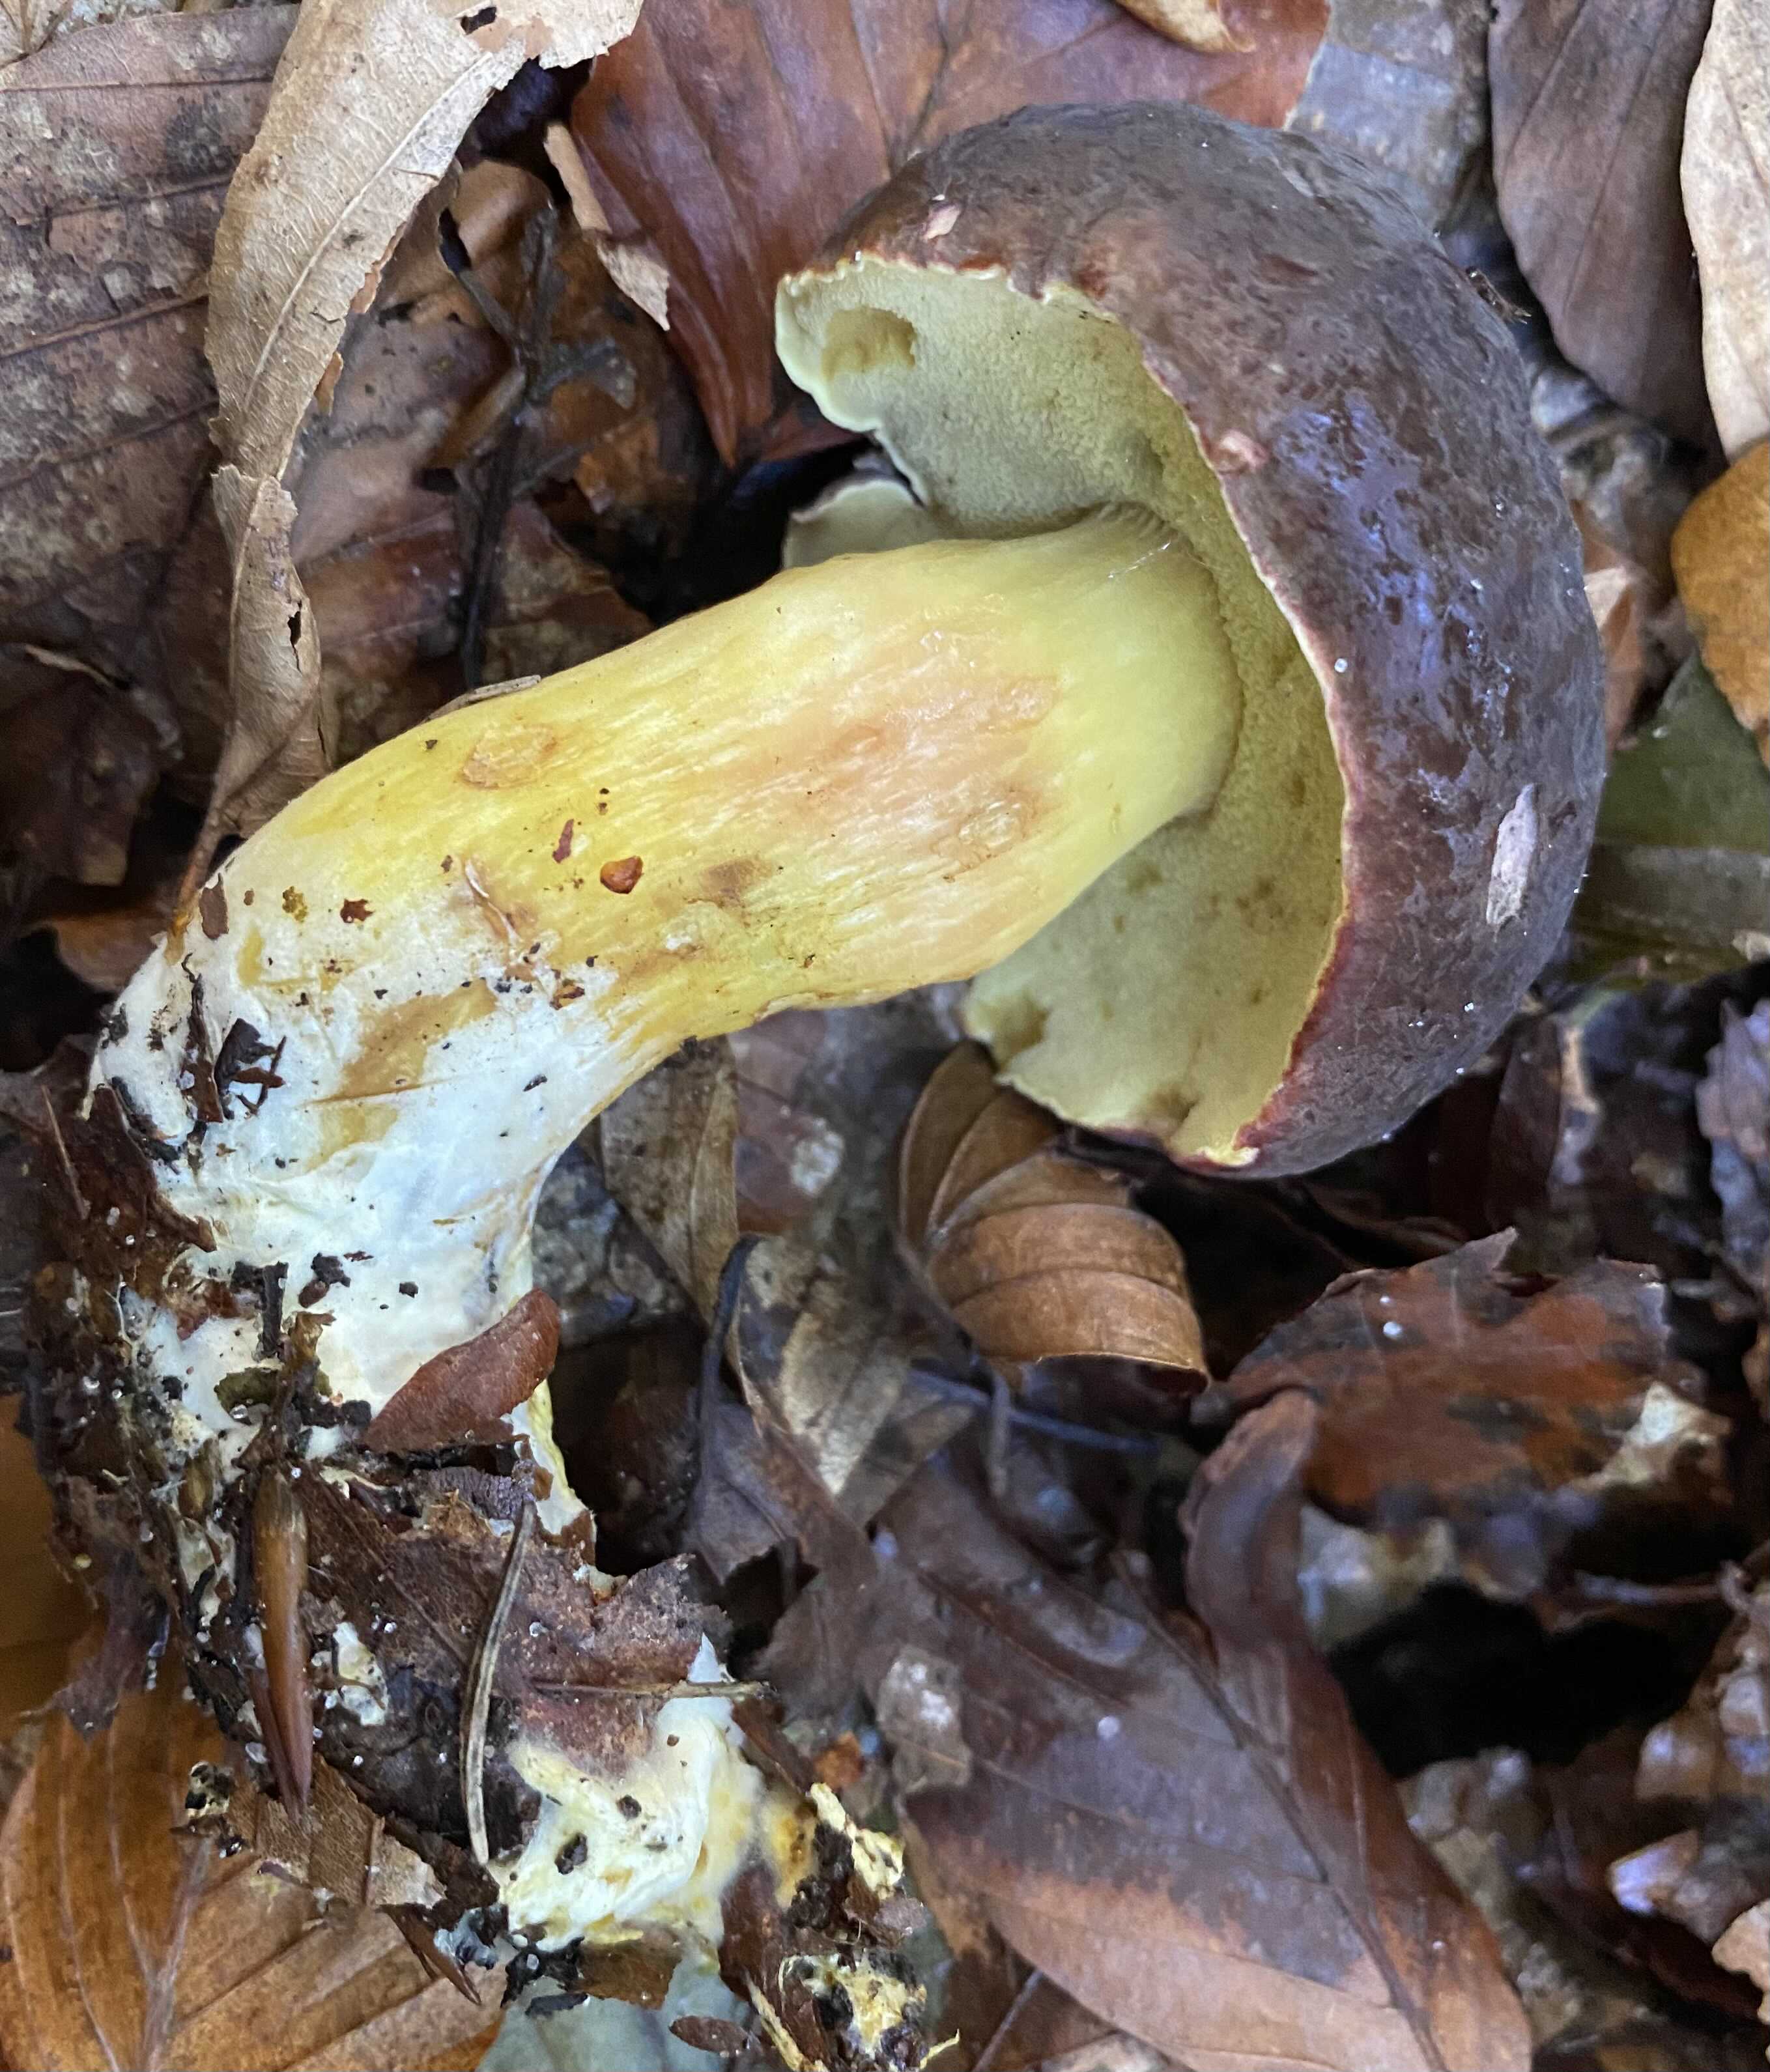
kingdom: Fungi
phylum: Basidiomycota
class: Agaricomycetes
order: Boletales
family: Boletaceae
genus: Xerocomellus
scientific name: Xerocomellus pruinatus
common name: dugget rørhat
